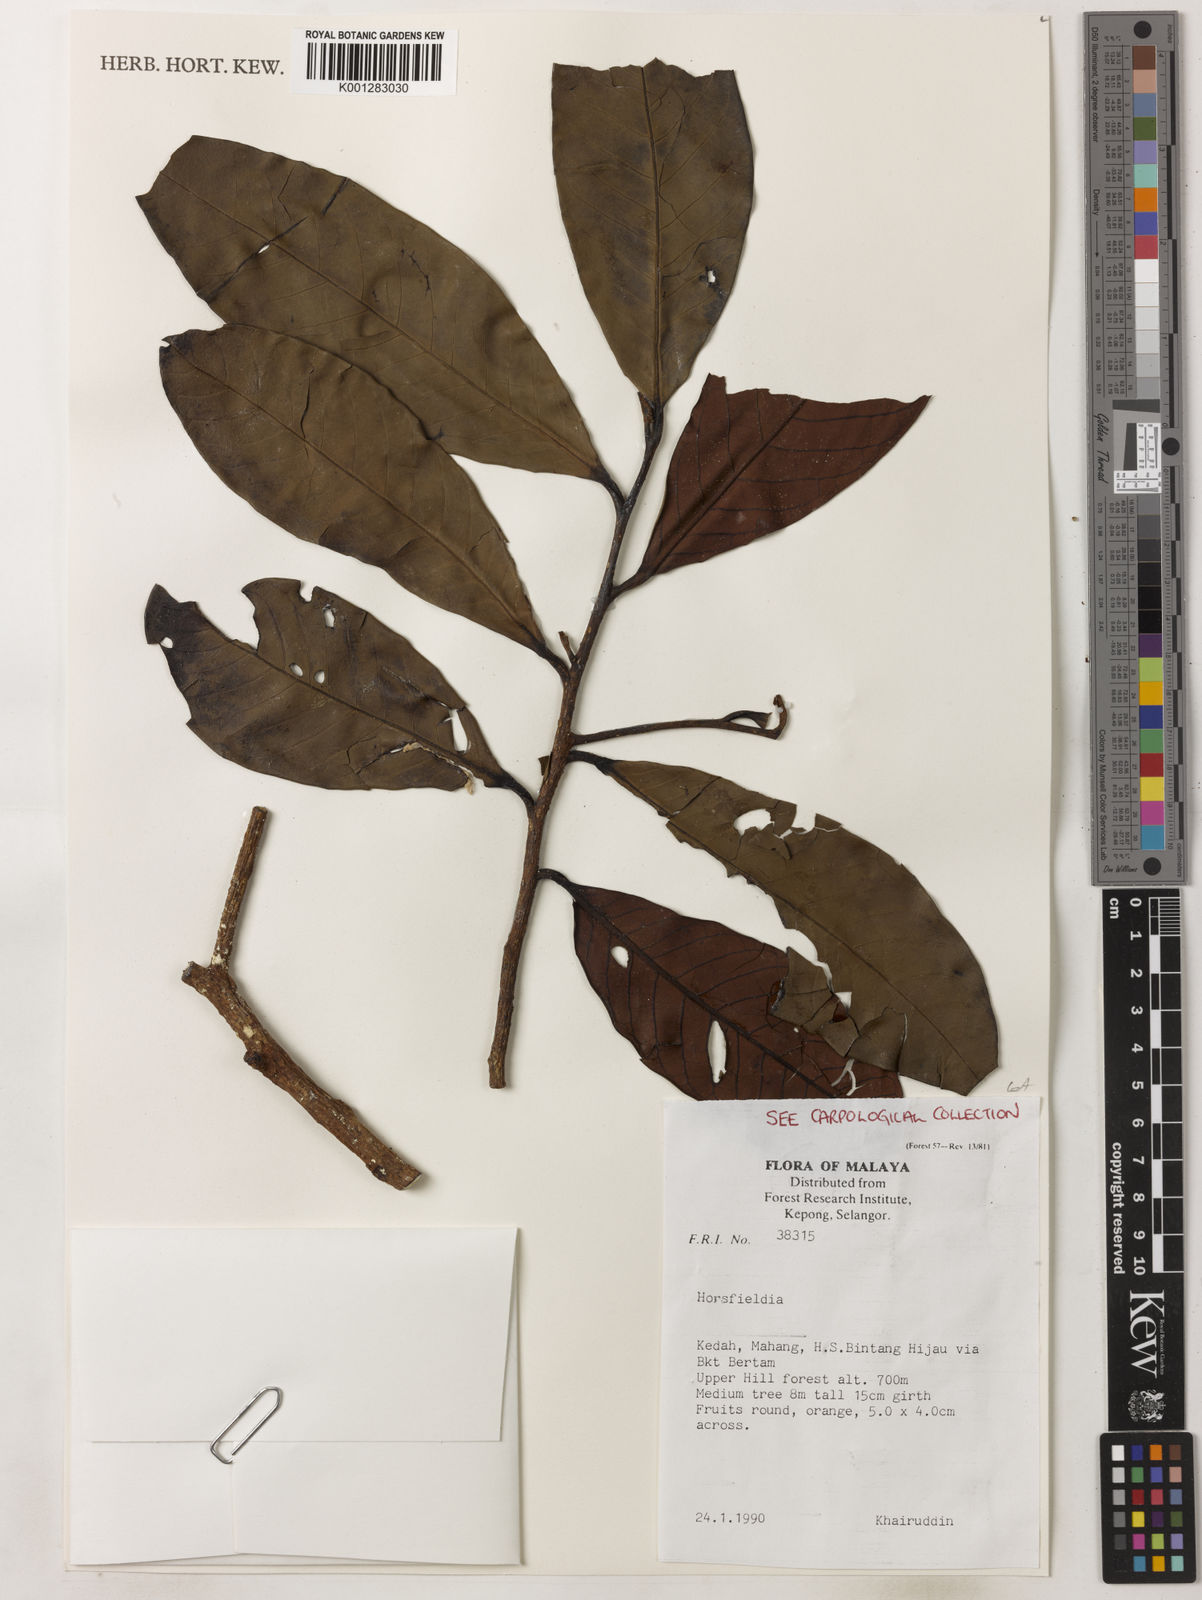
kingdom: Plantae
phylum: Tracheophyta
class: Magnoliopsida
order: Magnoliales
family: Myristicaceae
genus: Horsfieldia
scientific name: Horsfieldia
